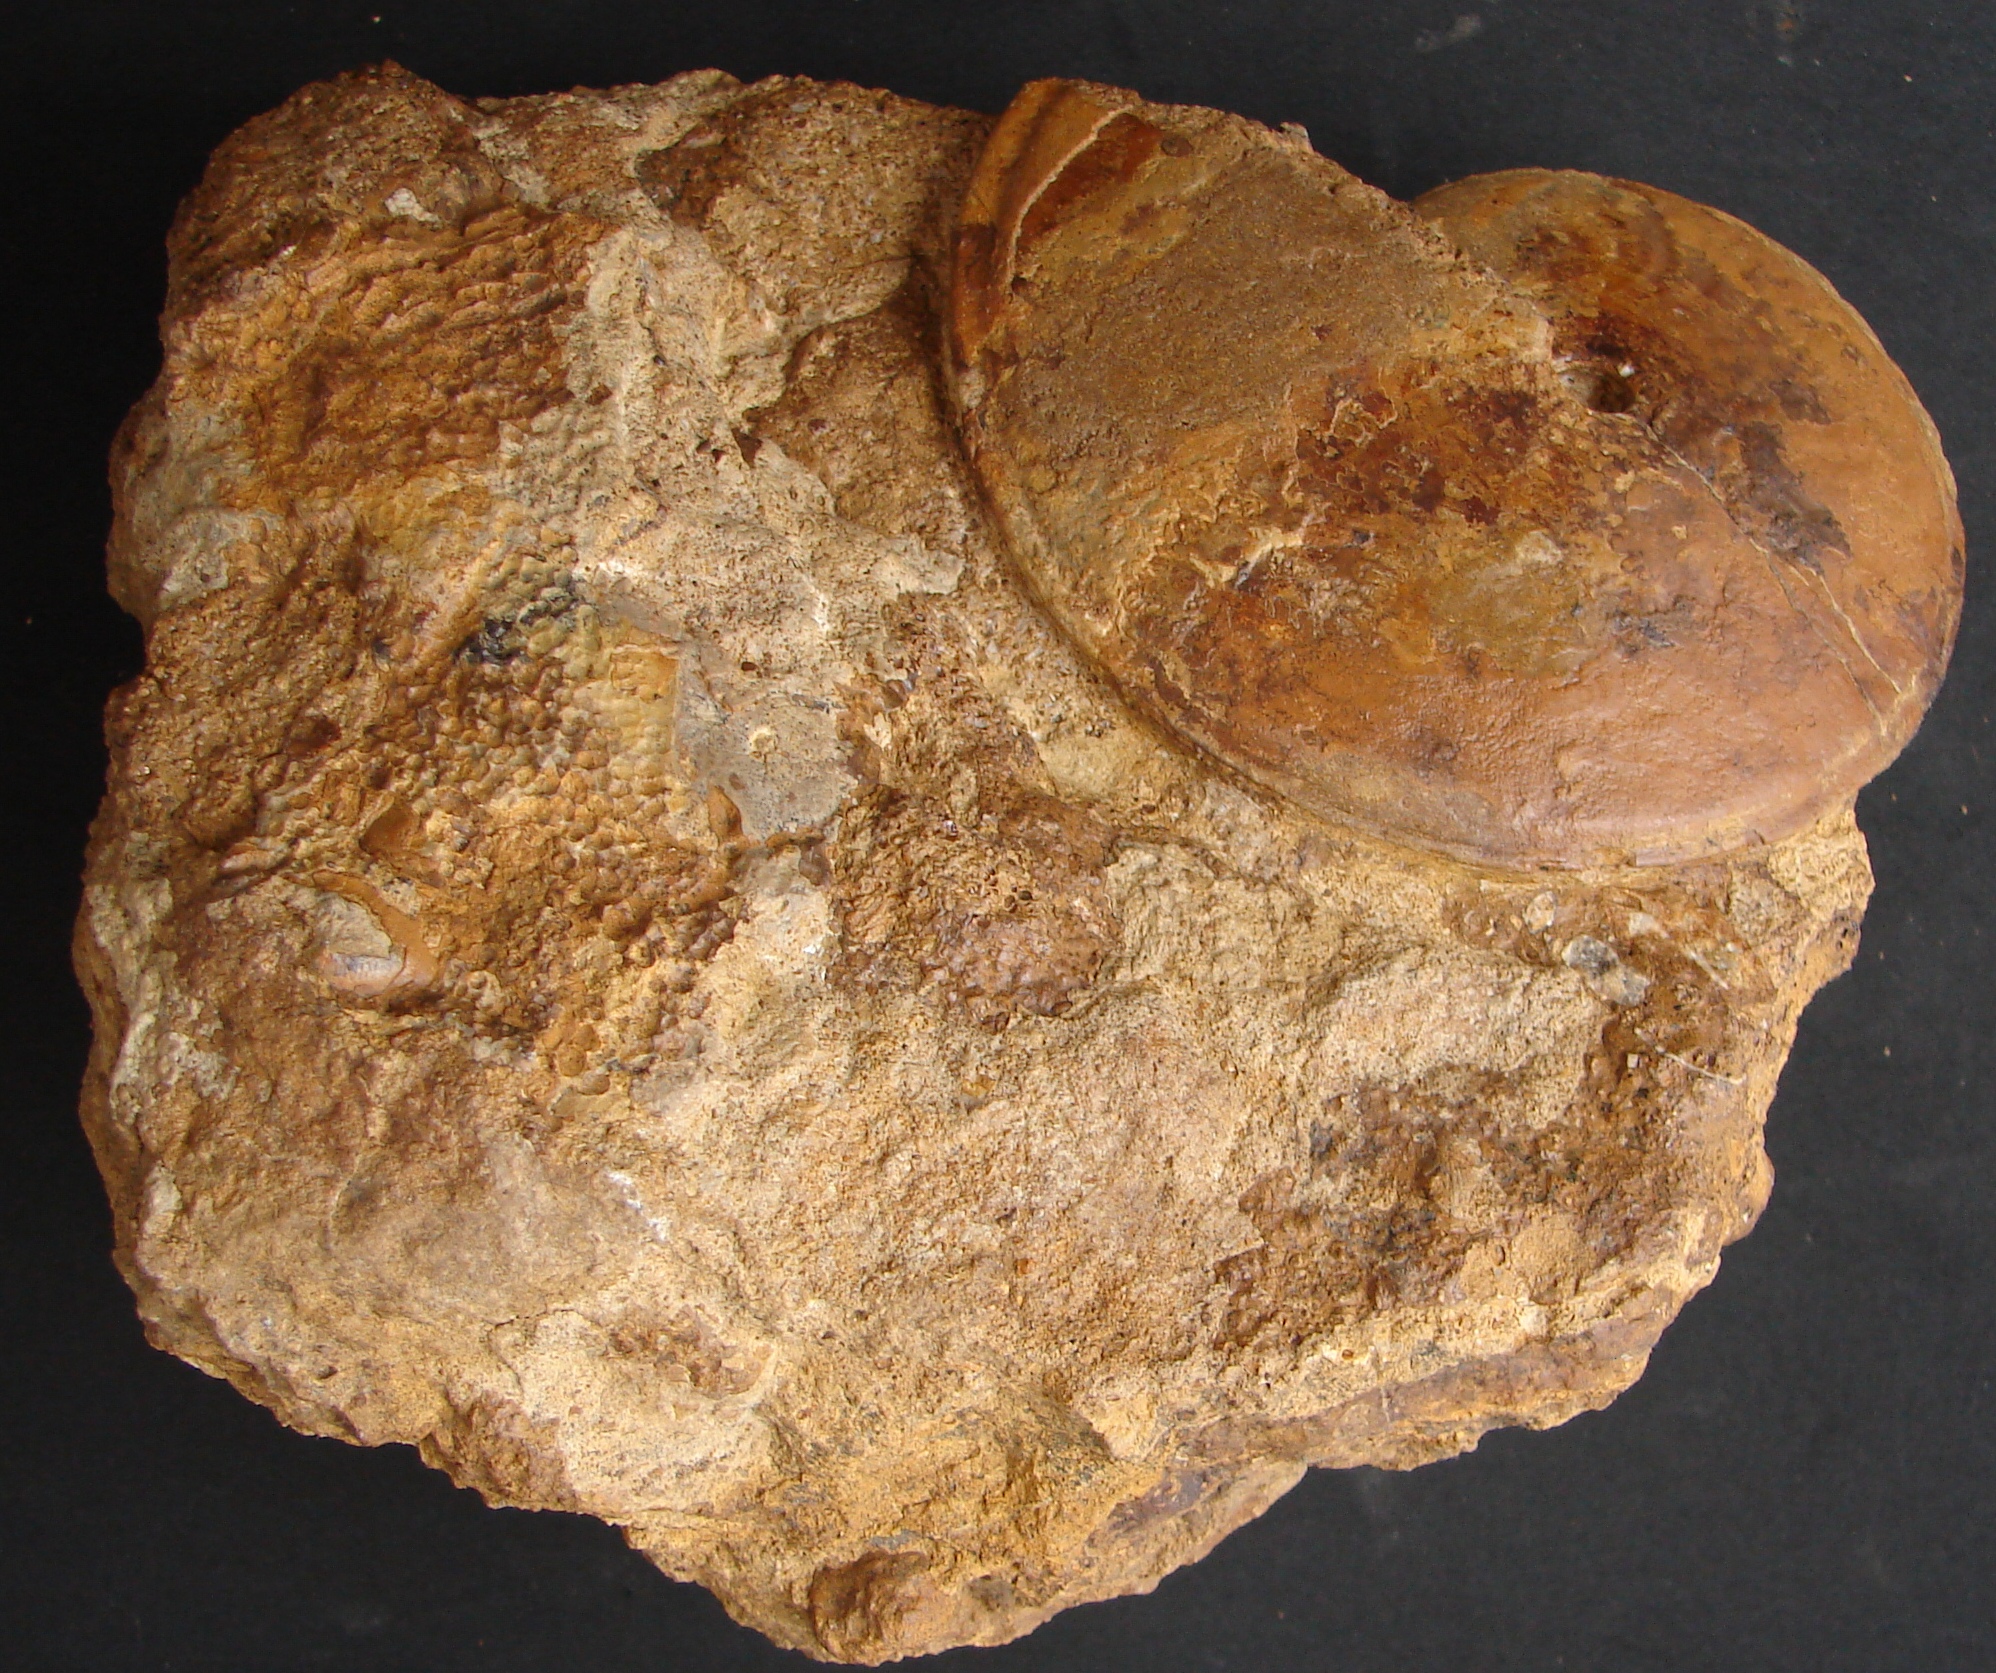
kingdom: Animalia
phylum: Mollusca
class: Cephalopoda
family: Graphoceratidae
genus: Hyperlioceras
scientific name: Hyperlioceras
